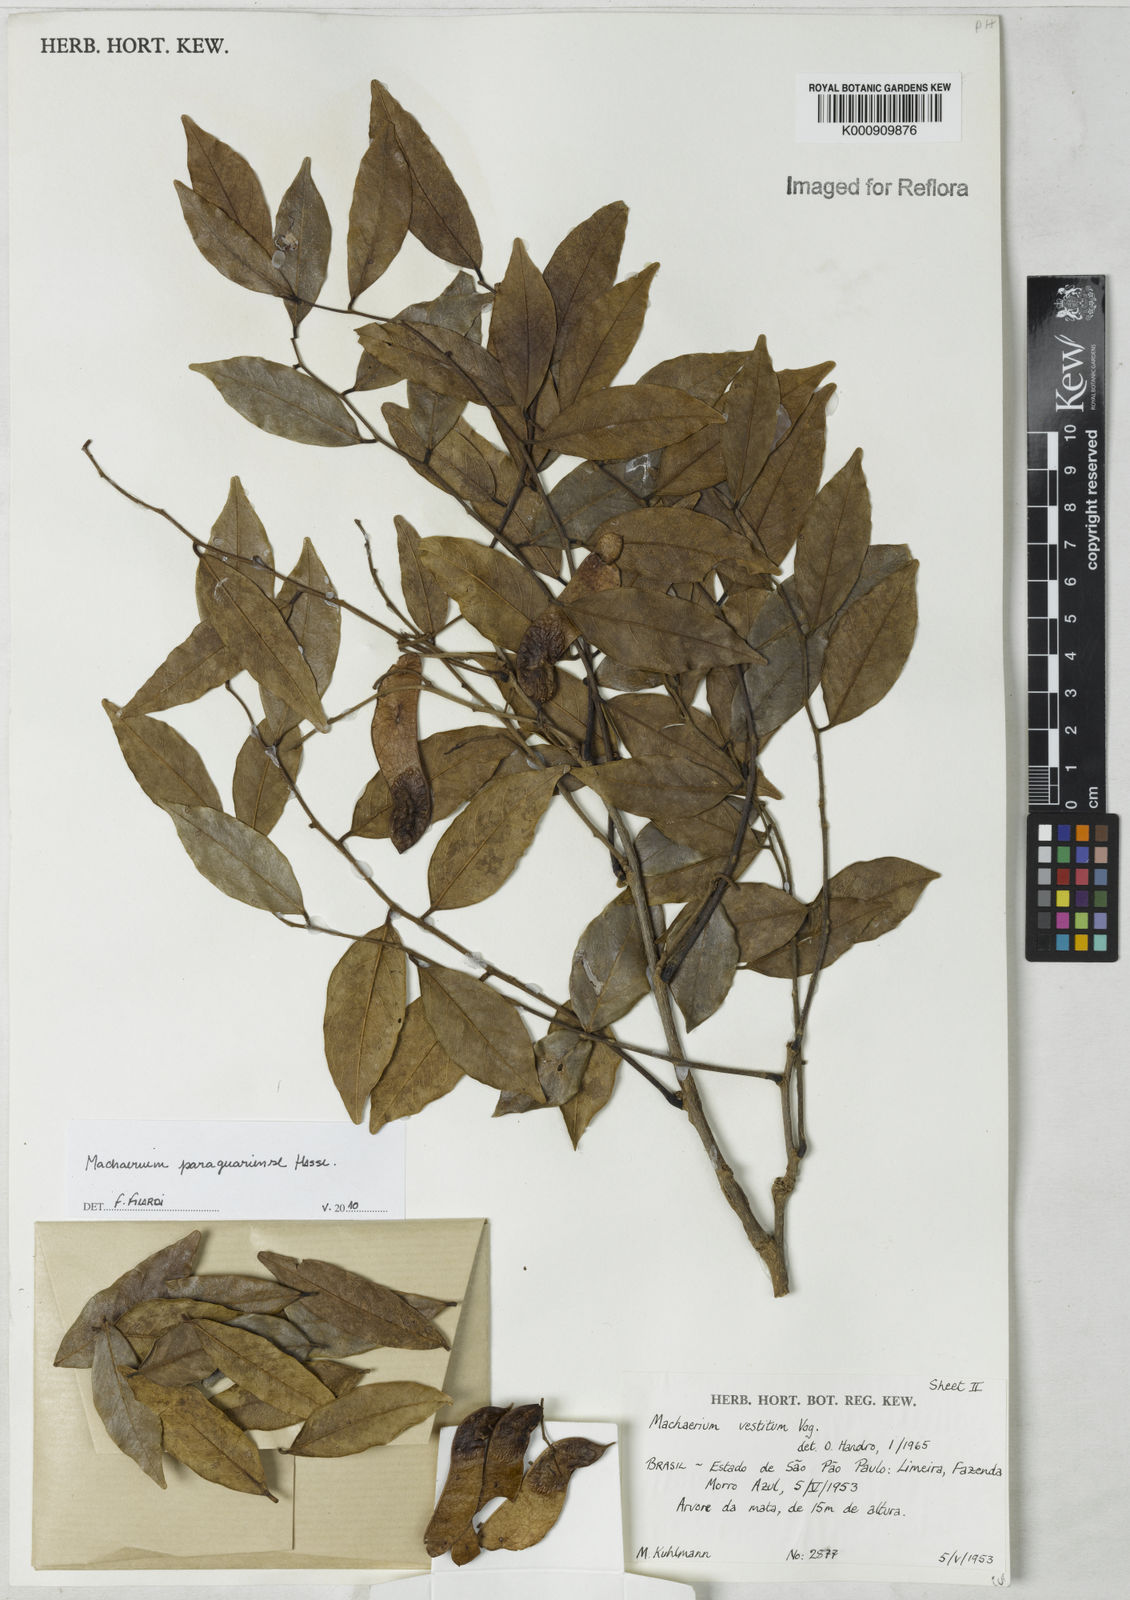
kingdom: Plantae
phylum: Tracheophyta
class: Magnoliopsida
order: Fabales
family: Fabaceae
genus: Machaerium
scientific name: Machaerium oblongifolium
